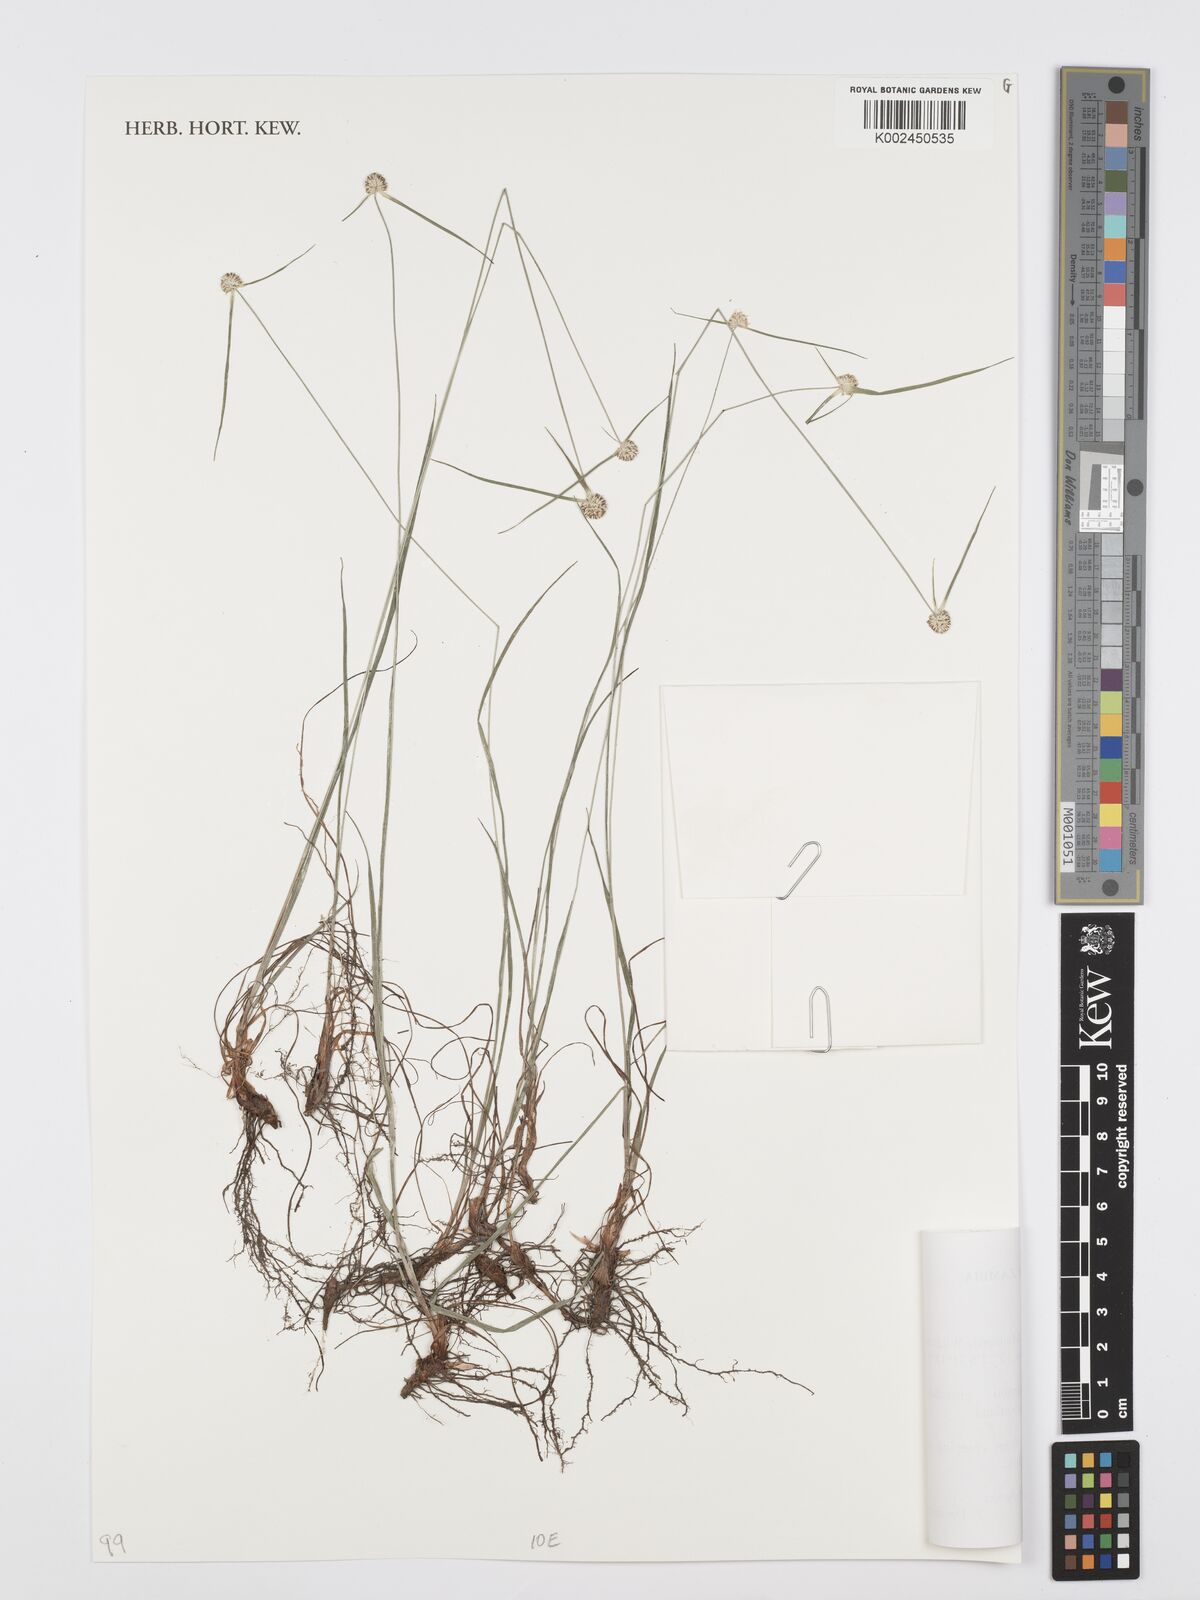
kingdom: Plantae
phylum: Tracheophyta
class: Liliopsida
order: Poales
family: Cyperaceae
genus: Cyperus
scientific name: Cyperus crassipes
